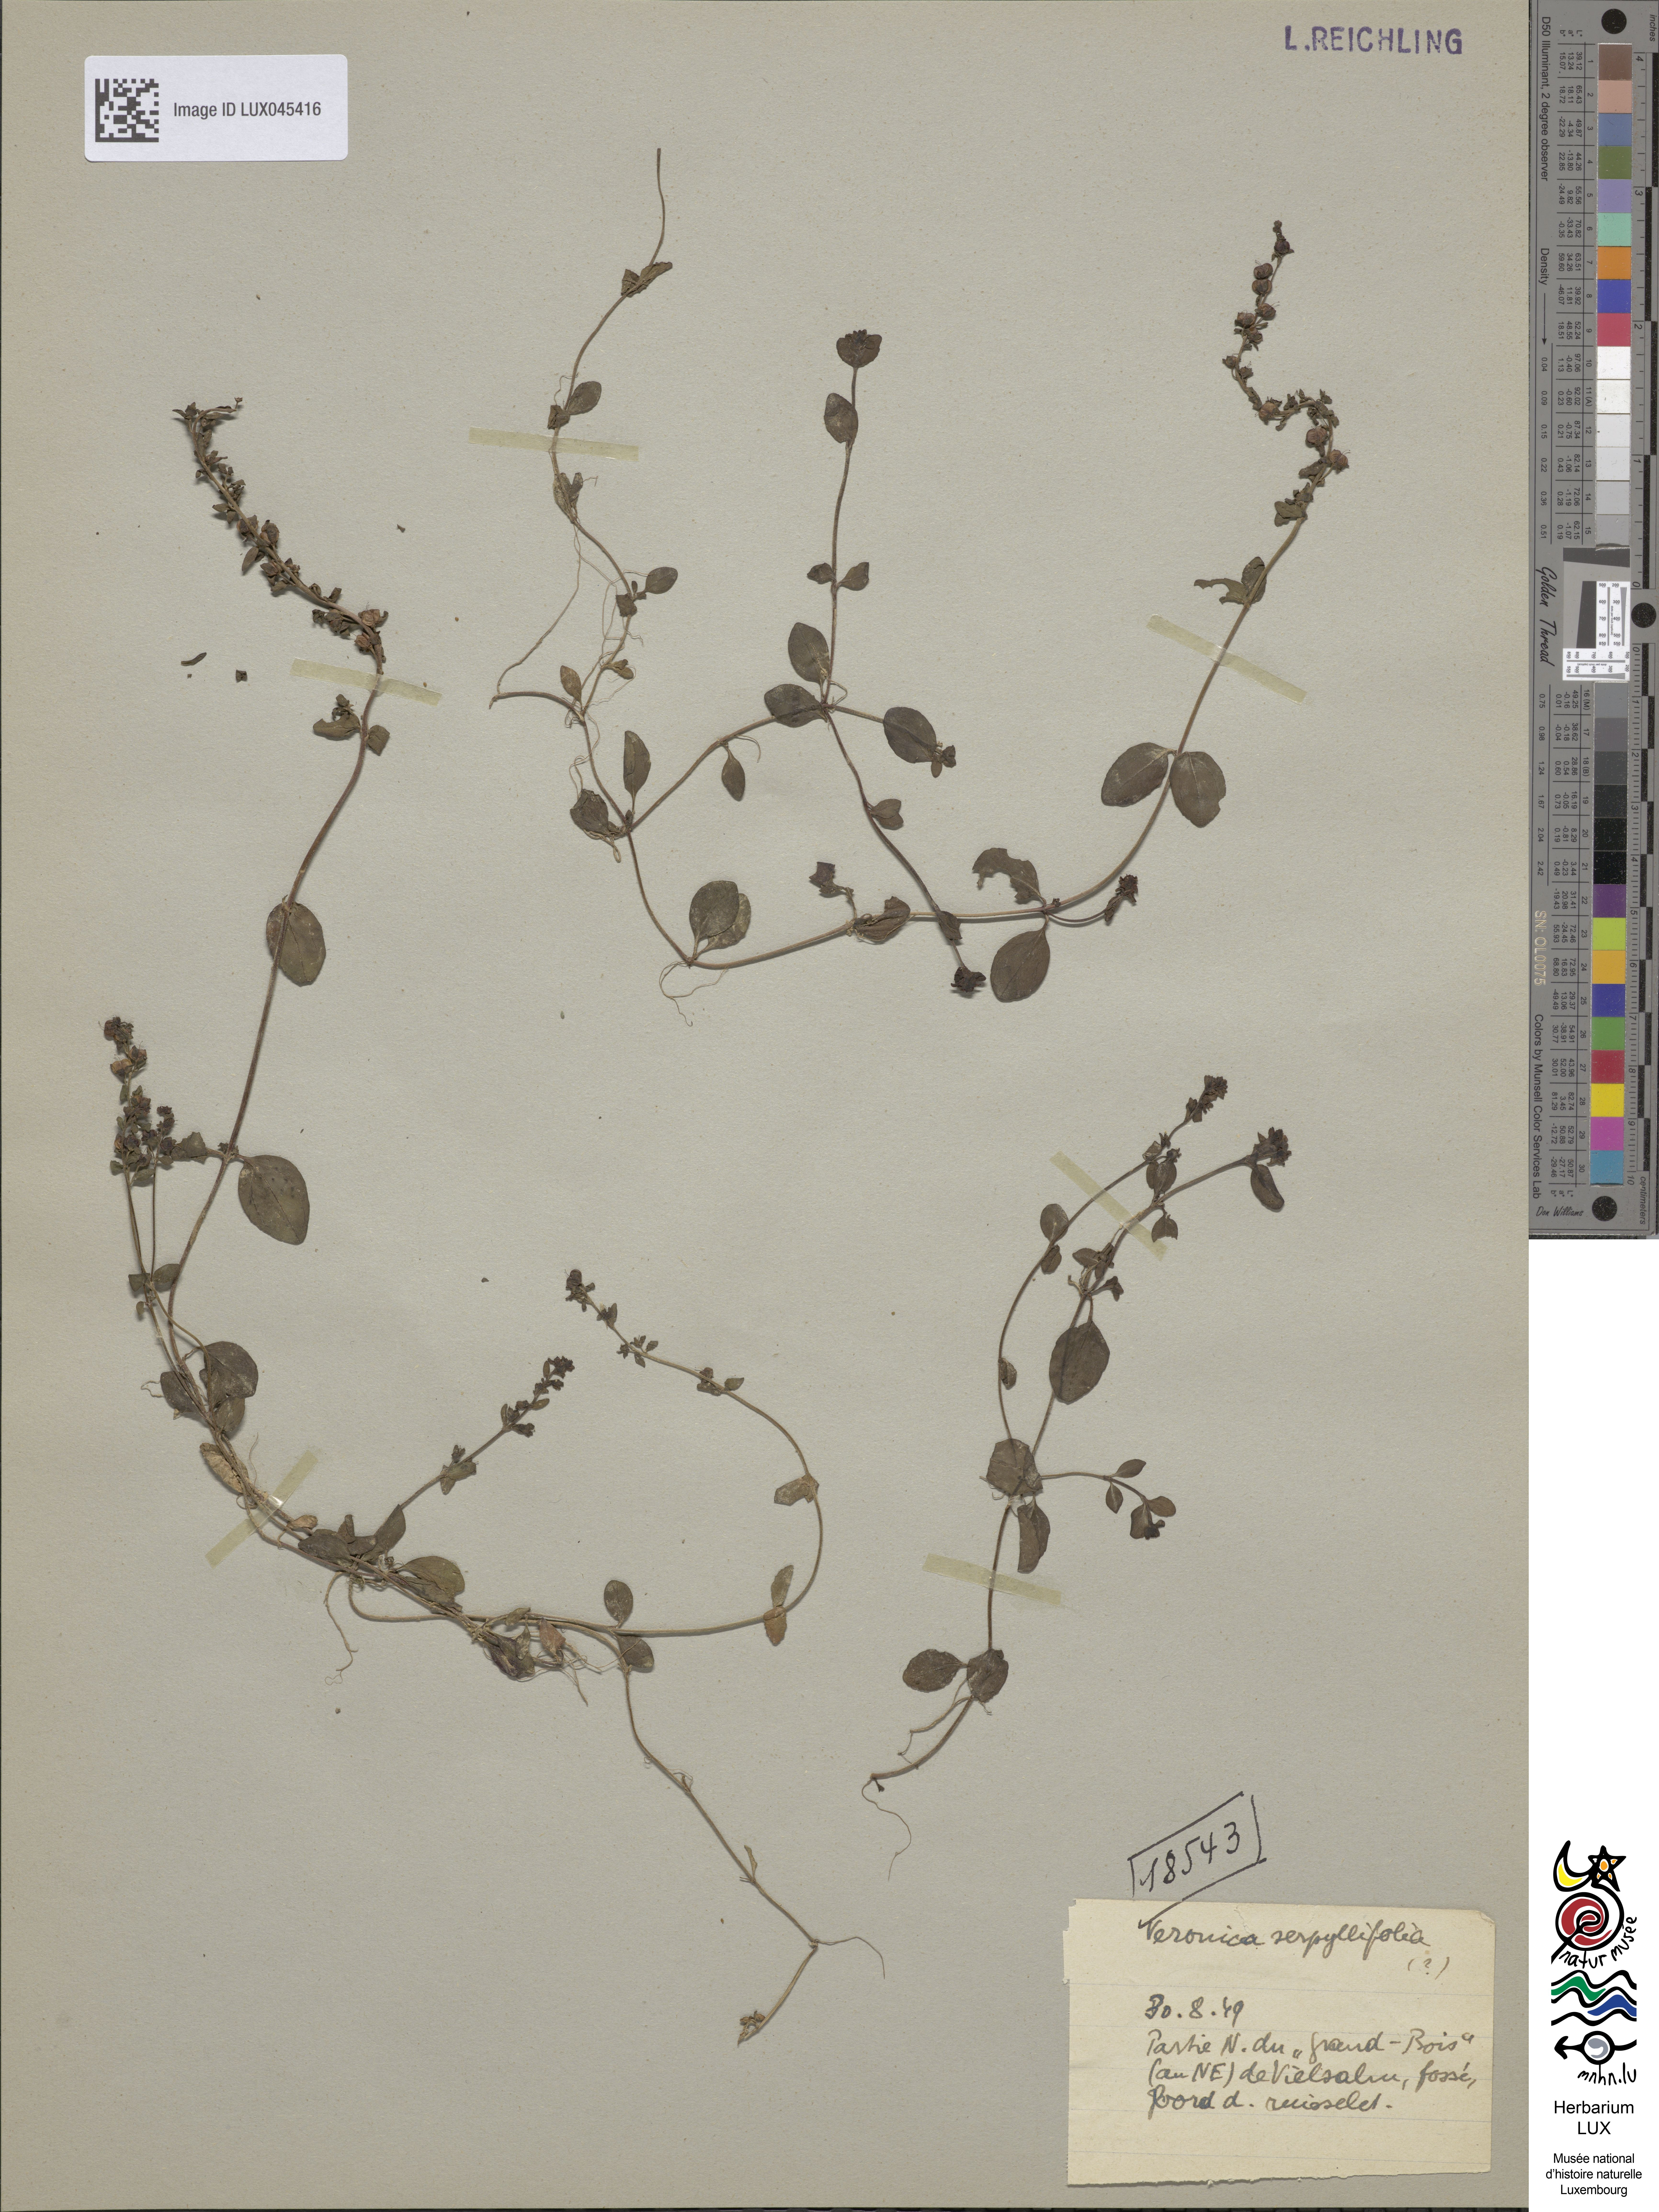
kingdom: Plantae
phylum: Tracheophyta
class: Magnoliopsida
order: Lamiales
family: Plantaginaceae
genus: Veronica
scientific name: Veronica serpyllifolia
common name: Thyme-leaved speedwell
